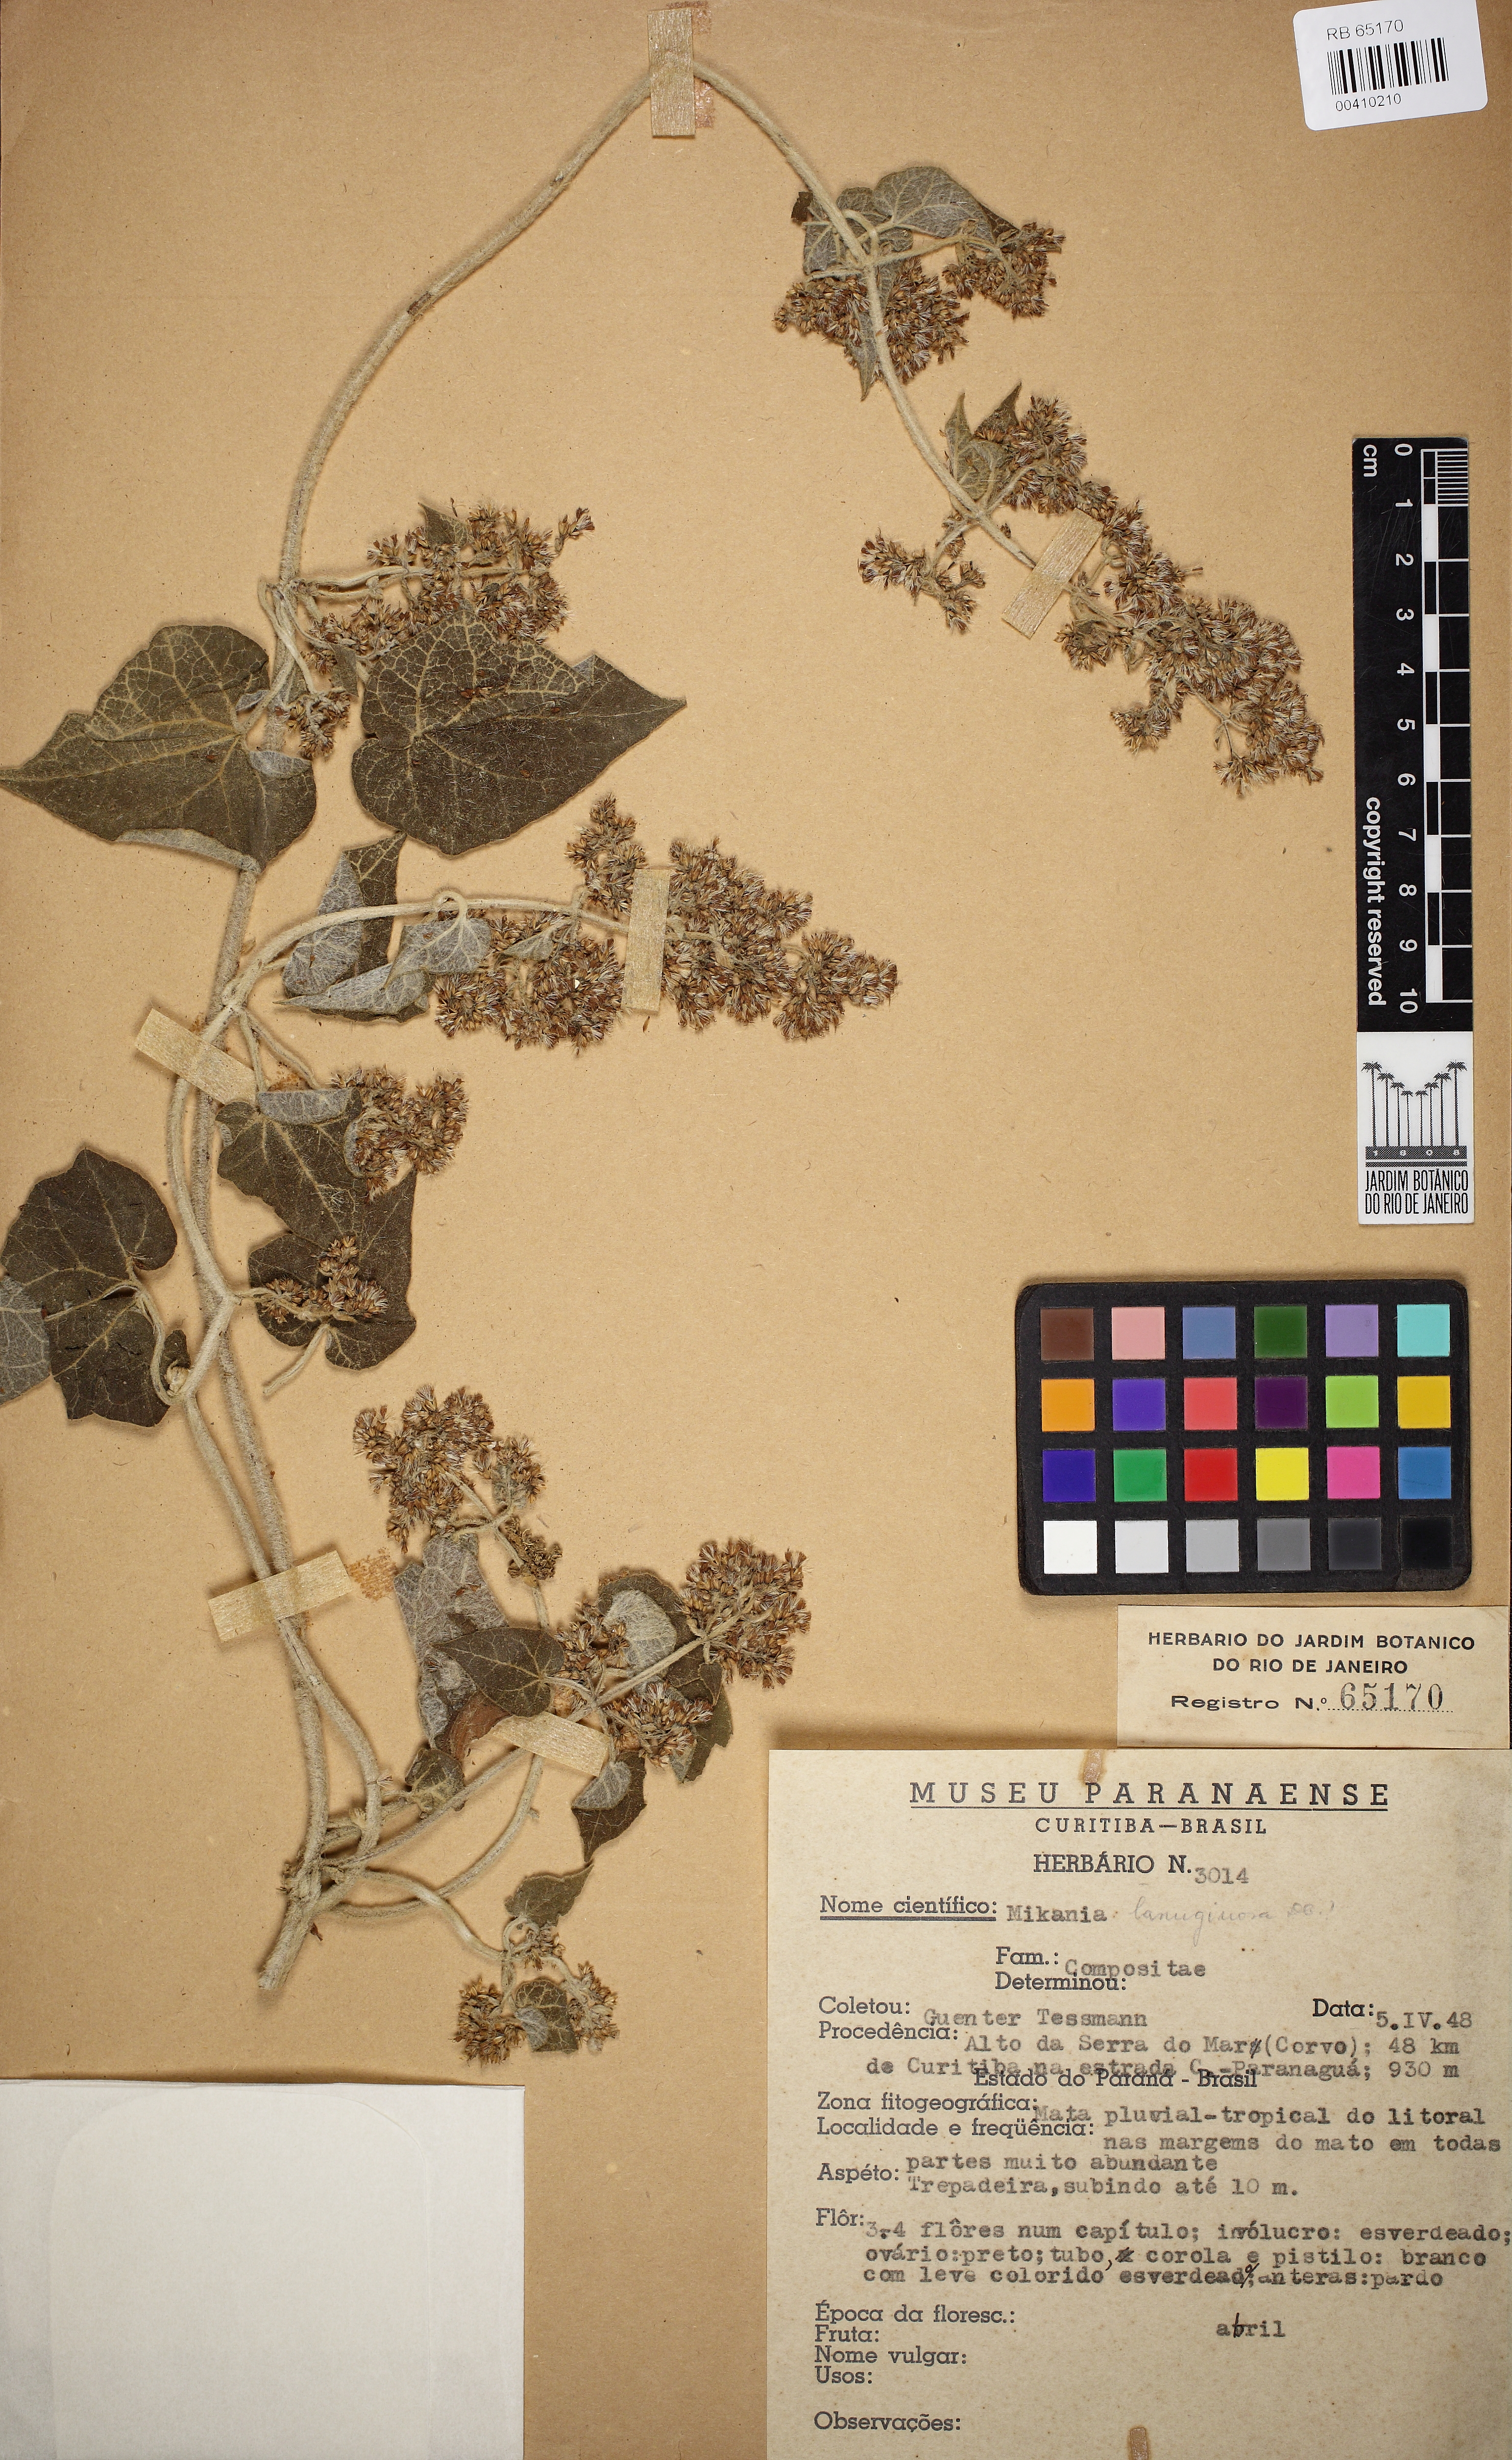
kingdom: Plantae
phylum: Tracheophyta
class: Magnoliopsida
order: Asterales
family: Asteraceae
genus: Mikania
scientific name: Mikania banisteriae
